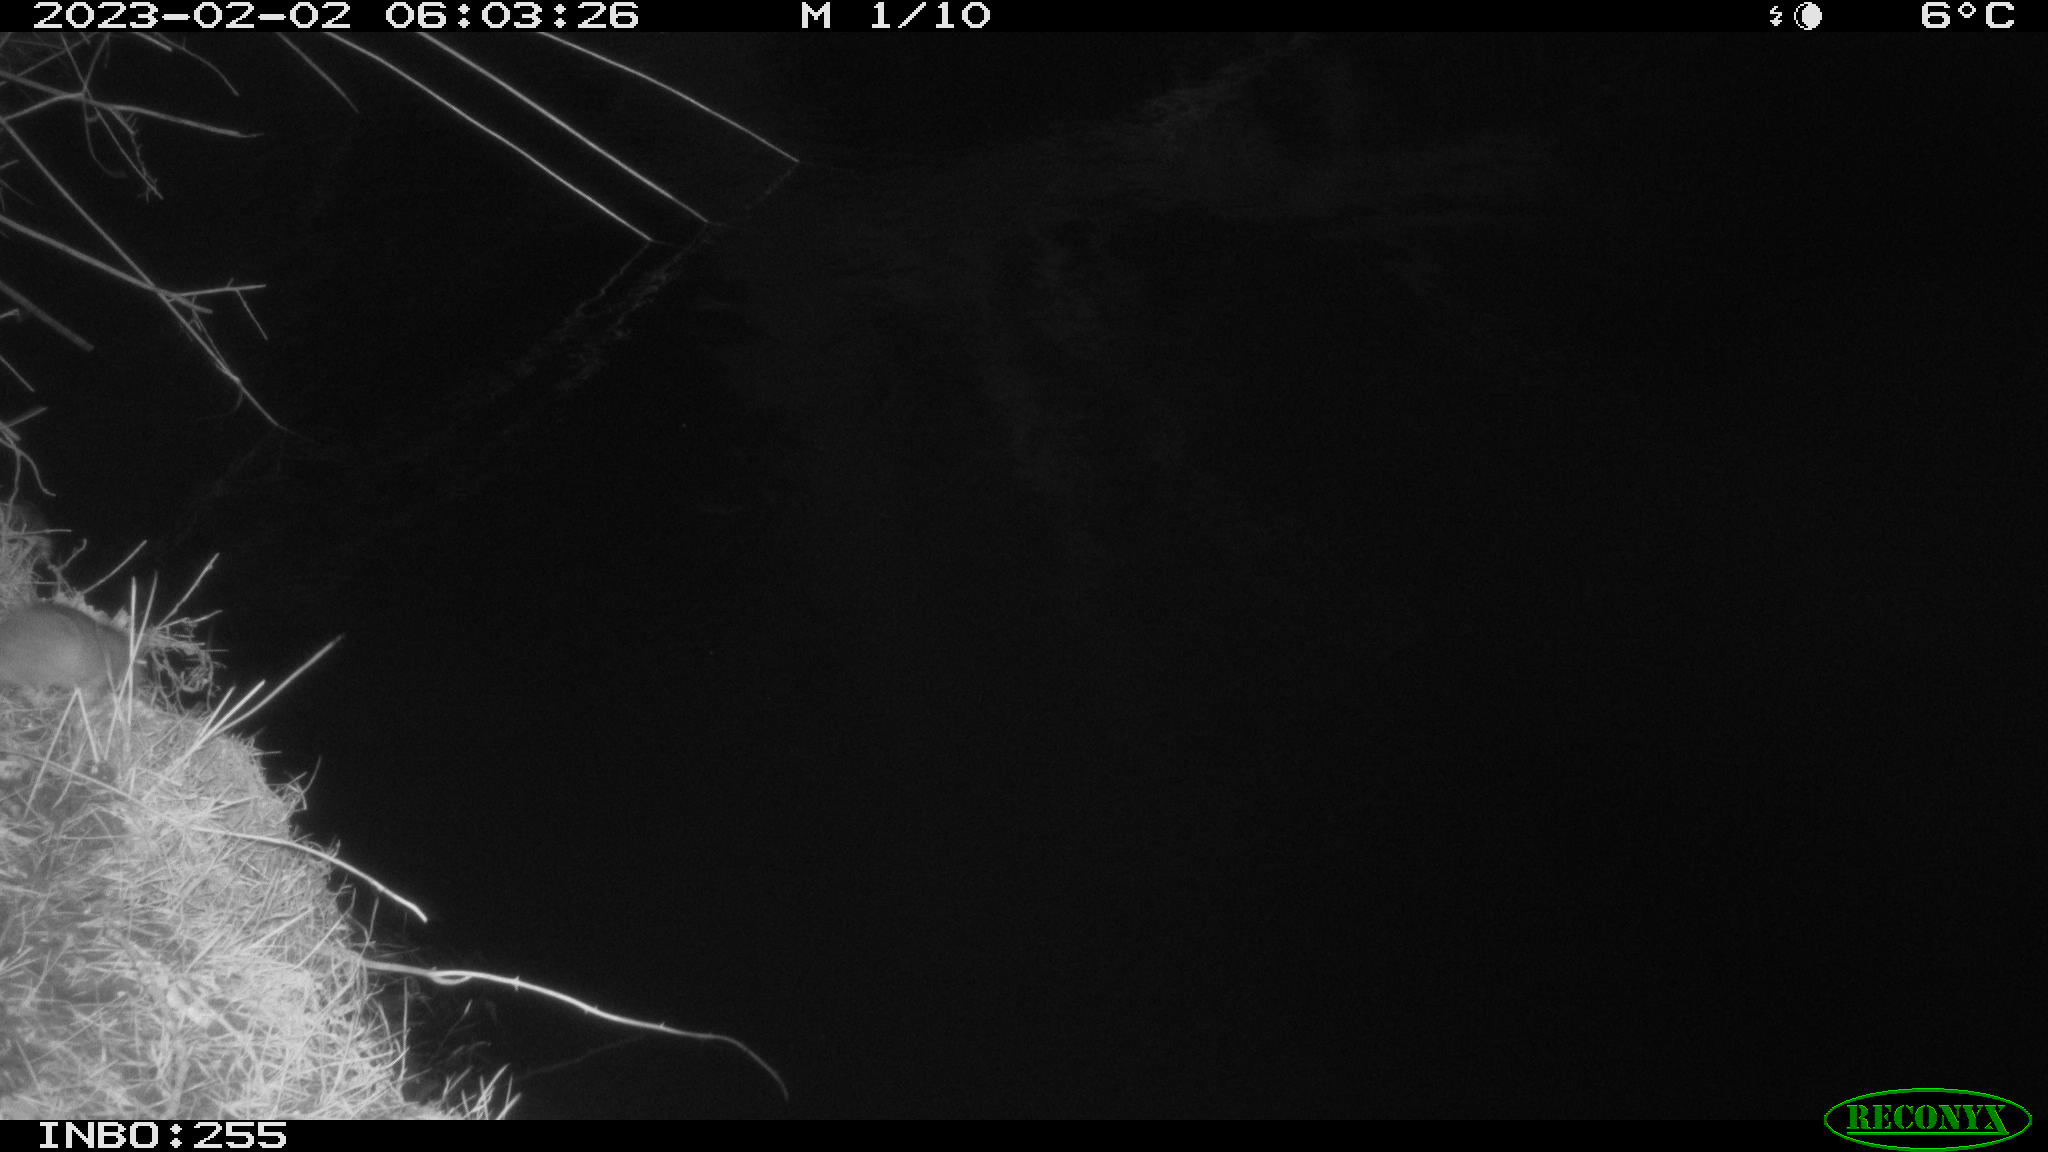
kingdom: Animalia
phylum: Chordata
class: Mammalia
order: Rodentia
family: Muridae
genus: Rattus
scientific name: Rattus norvegicus
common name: Brown rat
